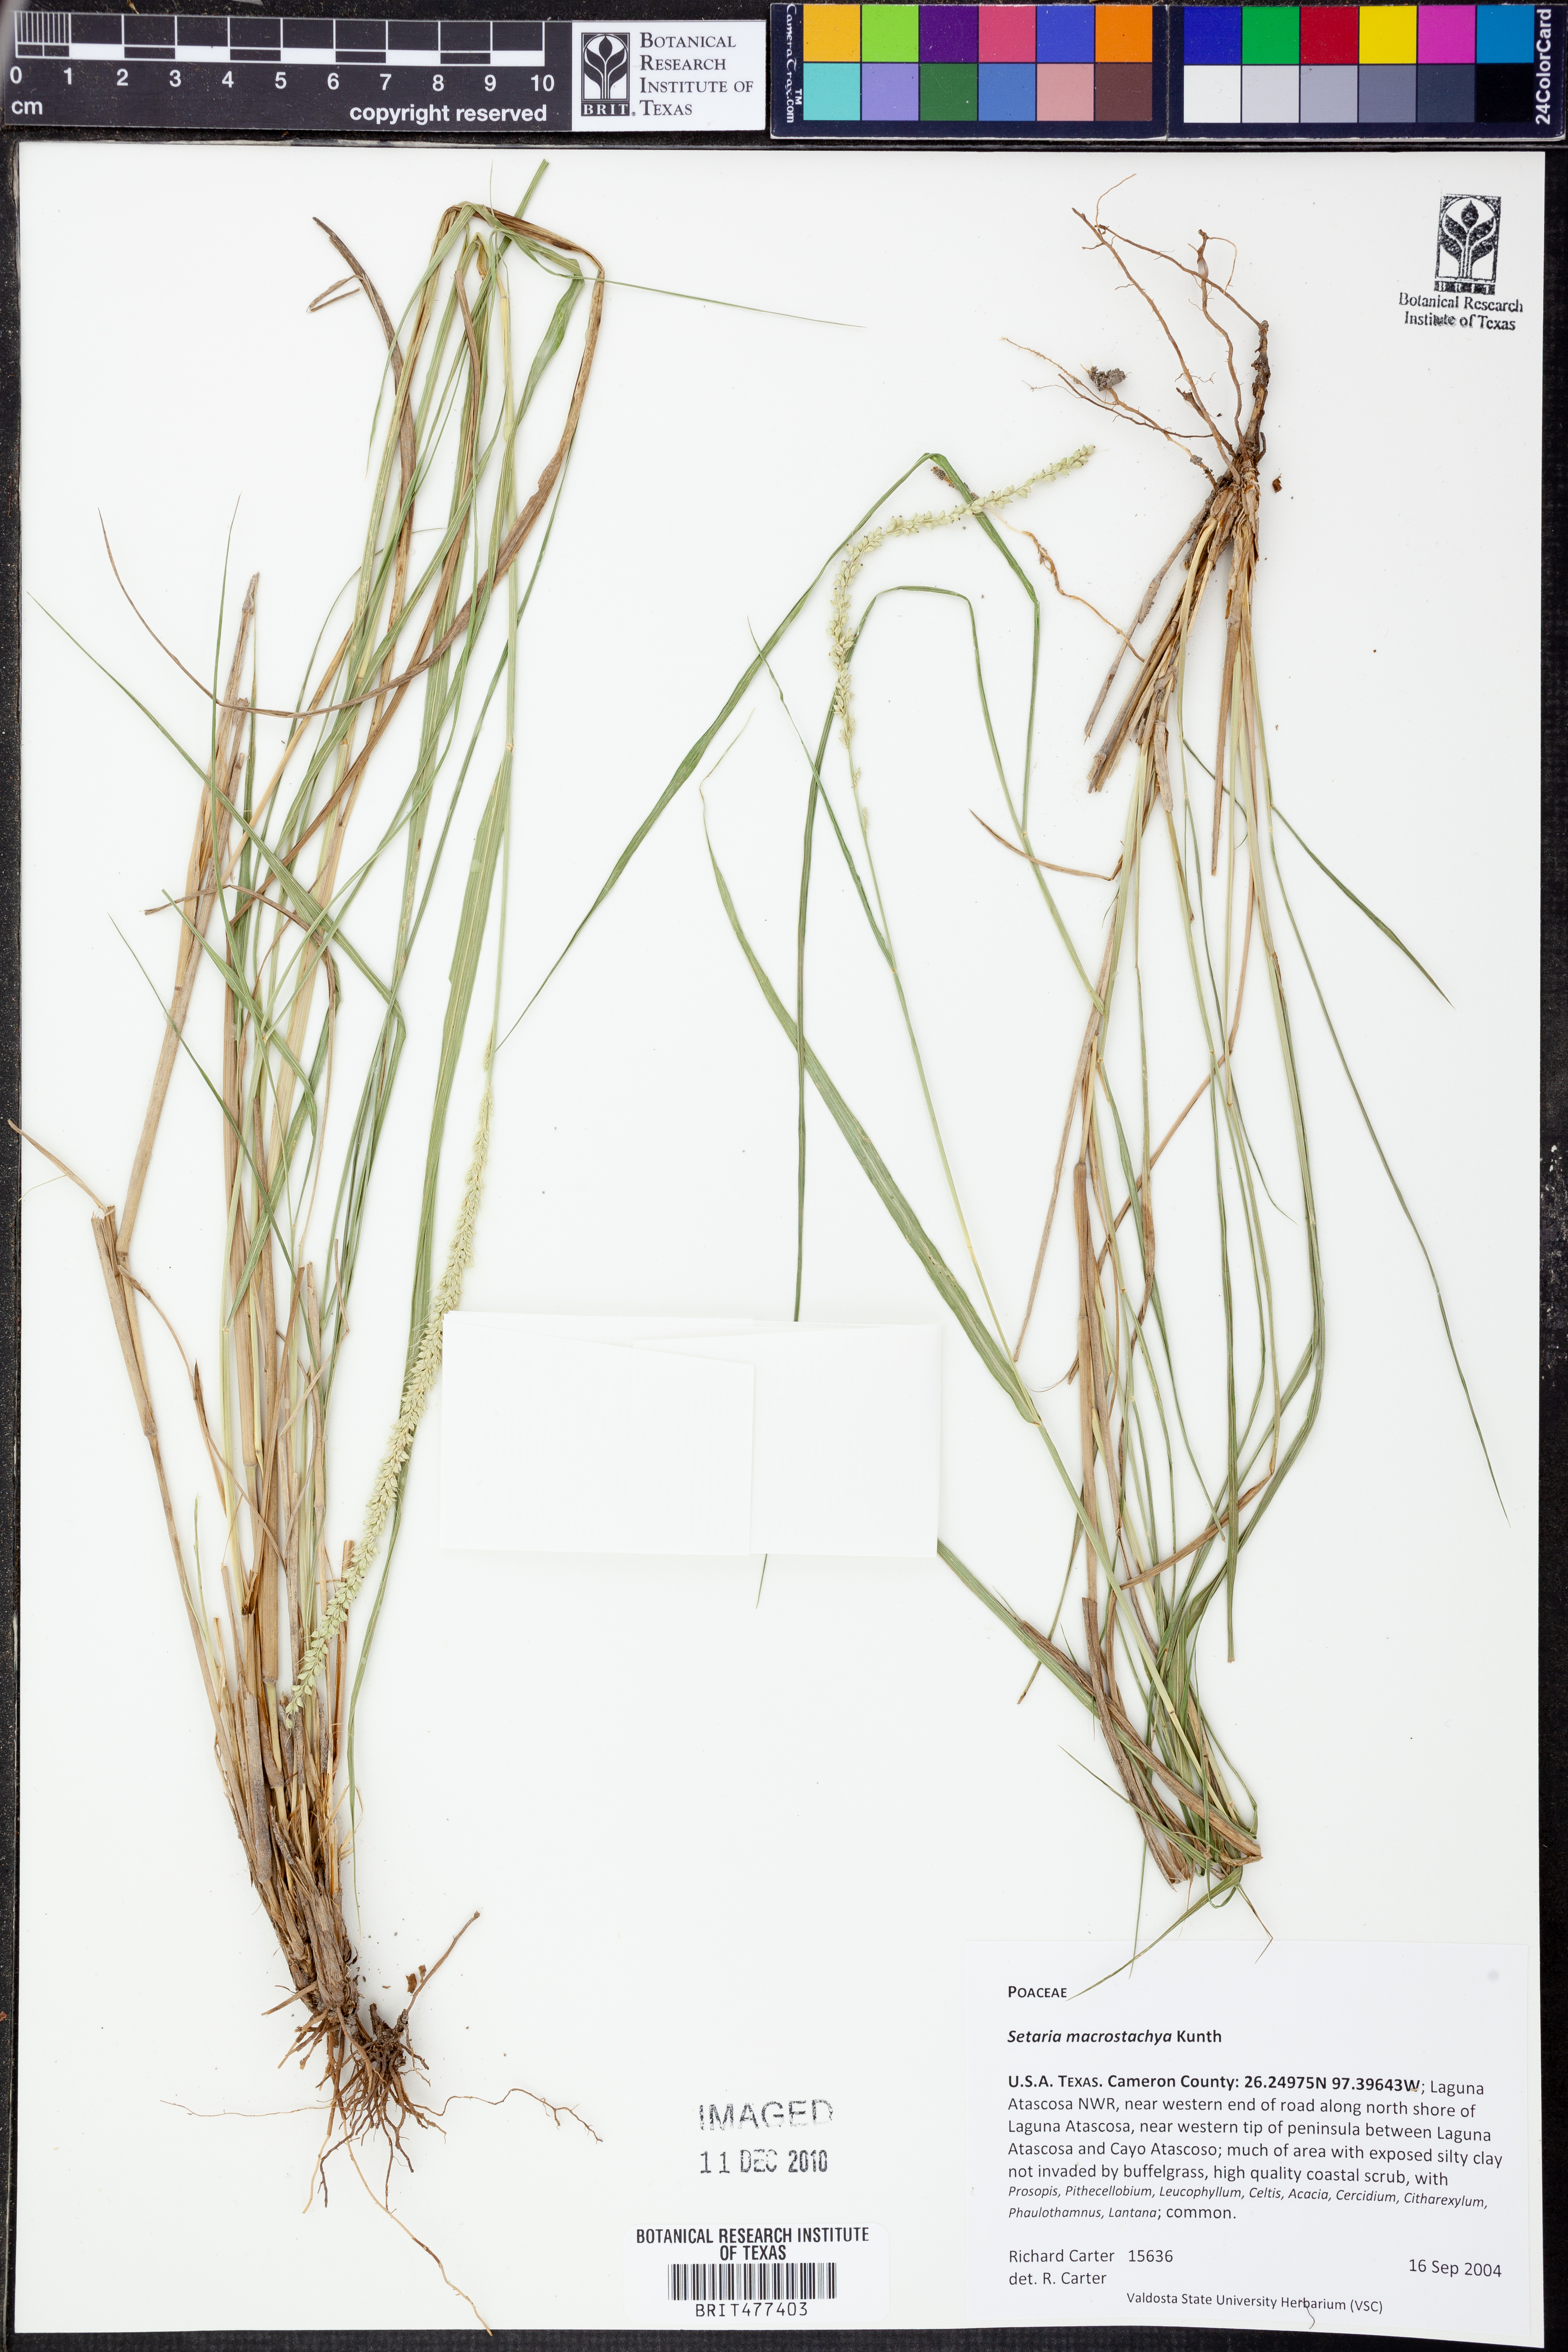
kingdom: Plantae
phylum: Tracheophyta
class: Liliopsida
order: Poales
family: Poaceae
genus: Setaria
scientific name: Setaria macrostachya
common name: Plains bristle grass
